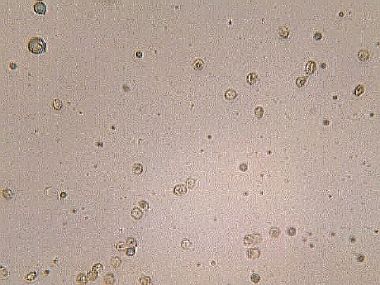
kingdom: Fungi
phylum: Basidiomycota
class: Agaricomycetes
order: Agaricales
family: Tricholomataceae
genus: Ripartites
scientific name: Ripartites tricholoma
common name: almindelig skæghat
